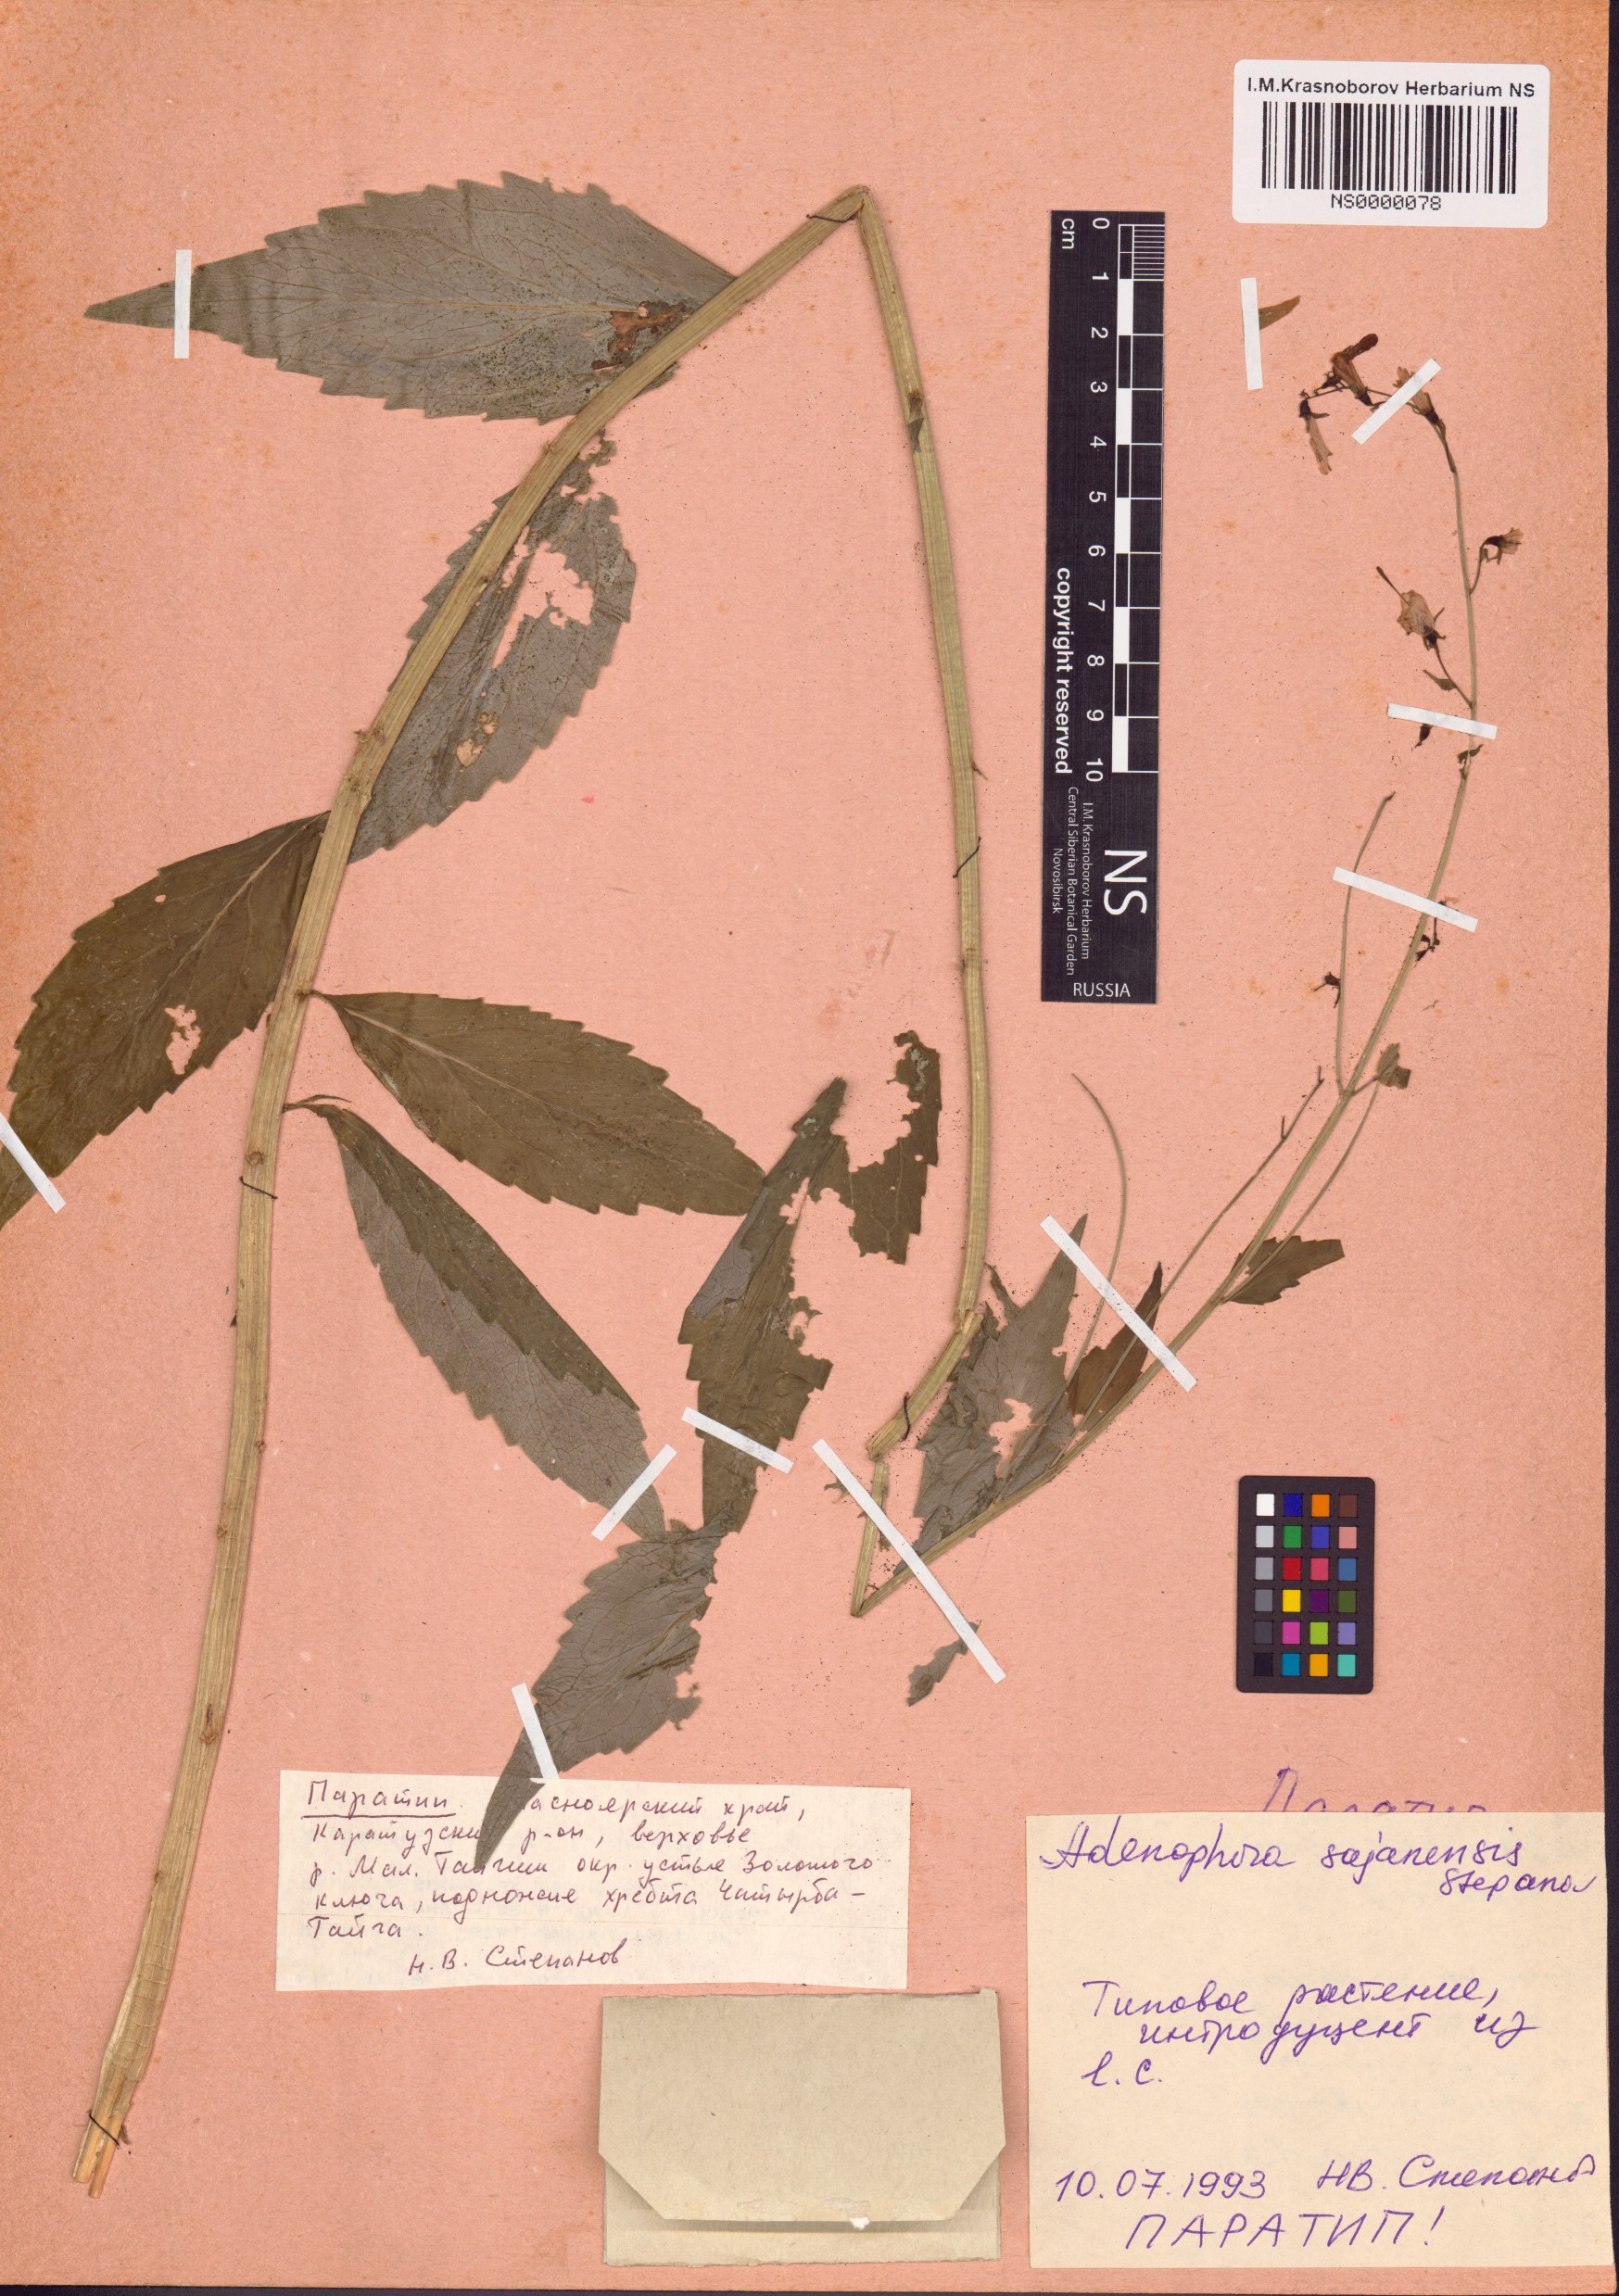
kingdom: Plantae
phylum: Tracheophyta
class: Magnoliopsida
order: Asterales
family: Campanulaceae
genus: Adenophora
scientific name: Adenophora sajanensis
